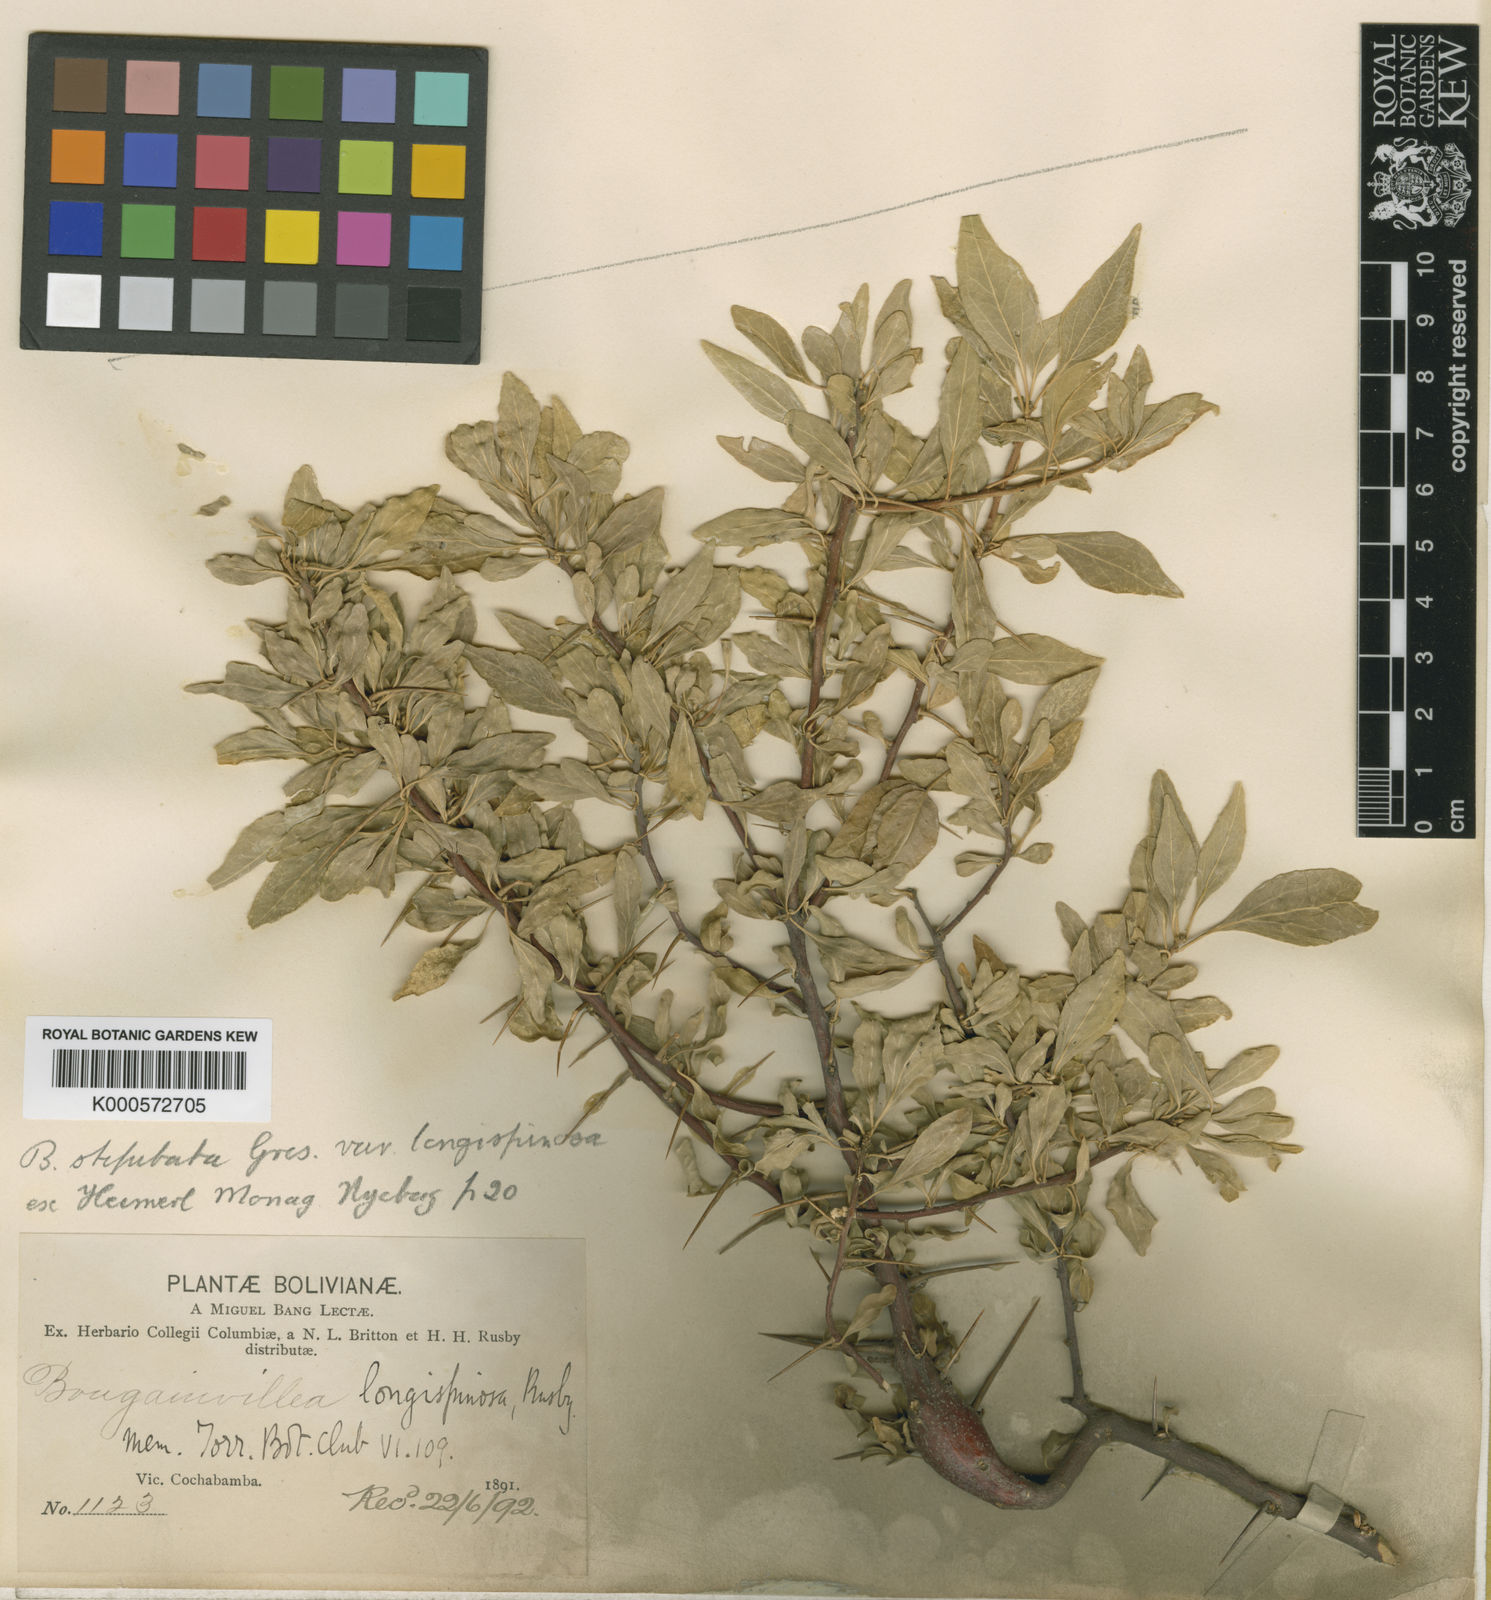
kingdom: Plantae
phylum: Tracheophyta
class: Magnoliopsida
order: Caryophyllales
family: Nyctaginaceae
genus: Bougainvillea
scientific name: Bougainvillea stipitata
